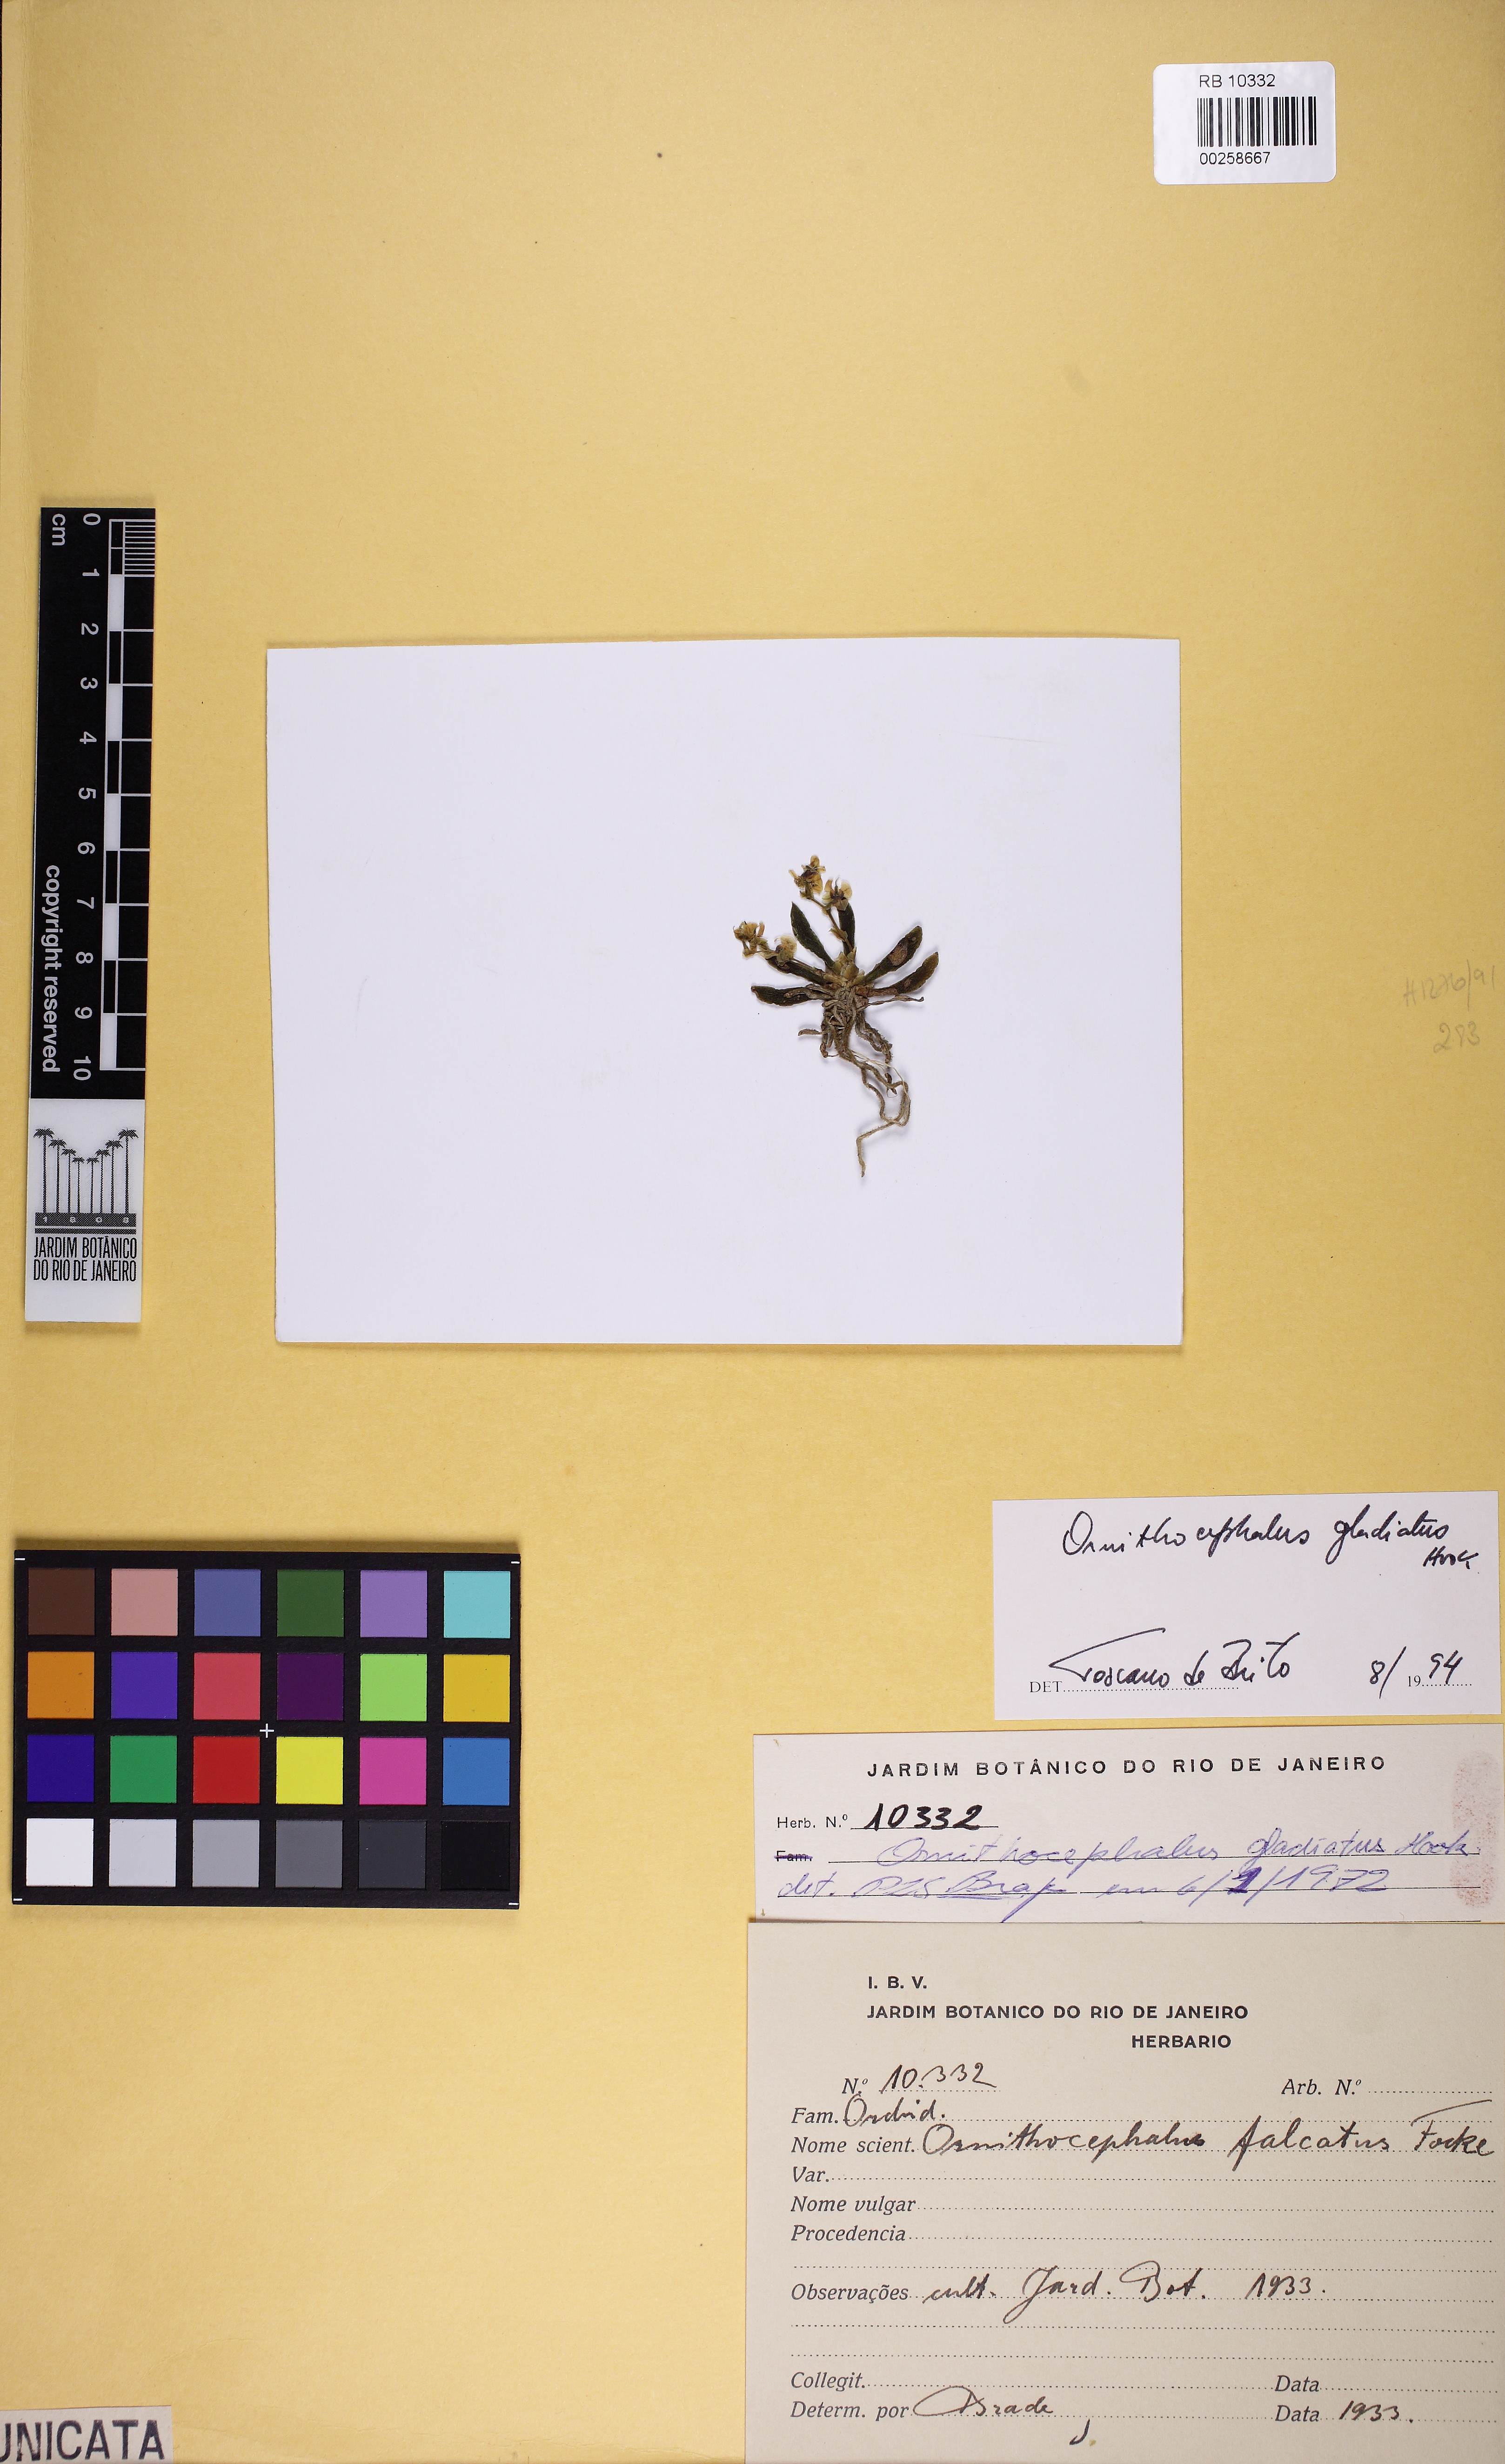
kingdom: Plantae
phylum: Tracheophyta
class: Liliopsida
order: Asparagales
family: Orchidaceae
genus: Ornithocephalus
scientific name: Ornithocephalus gladiatus
